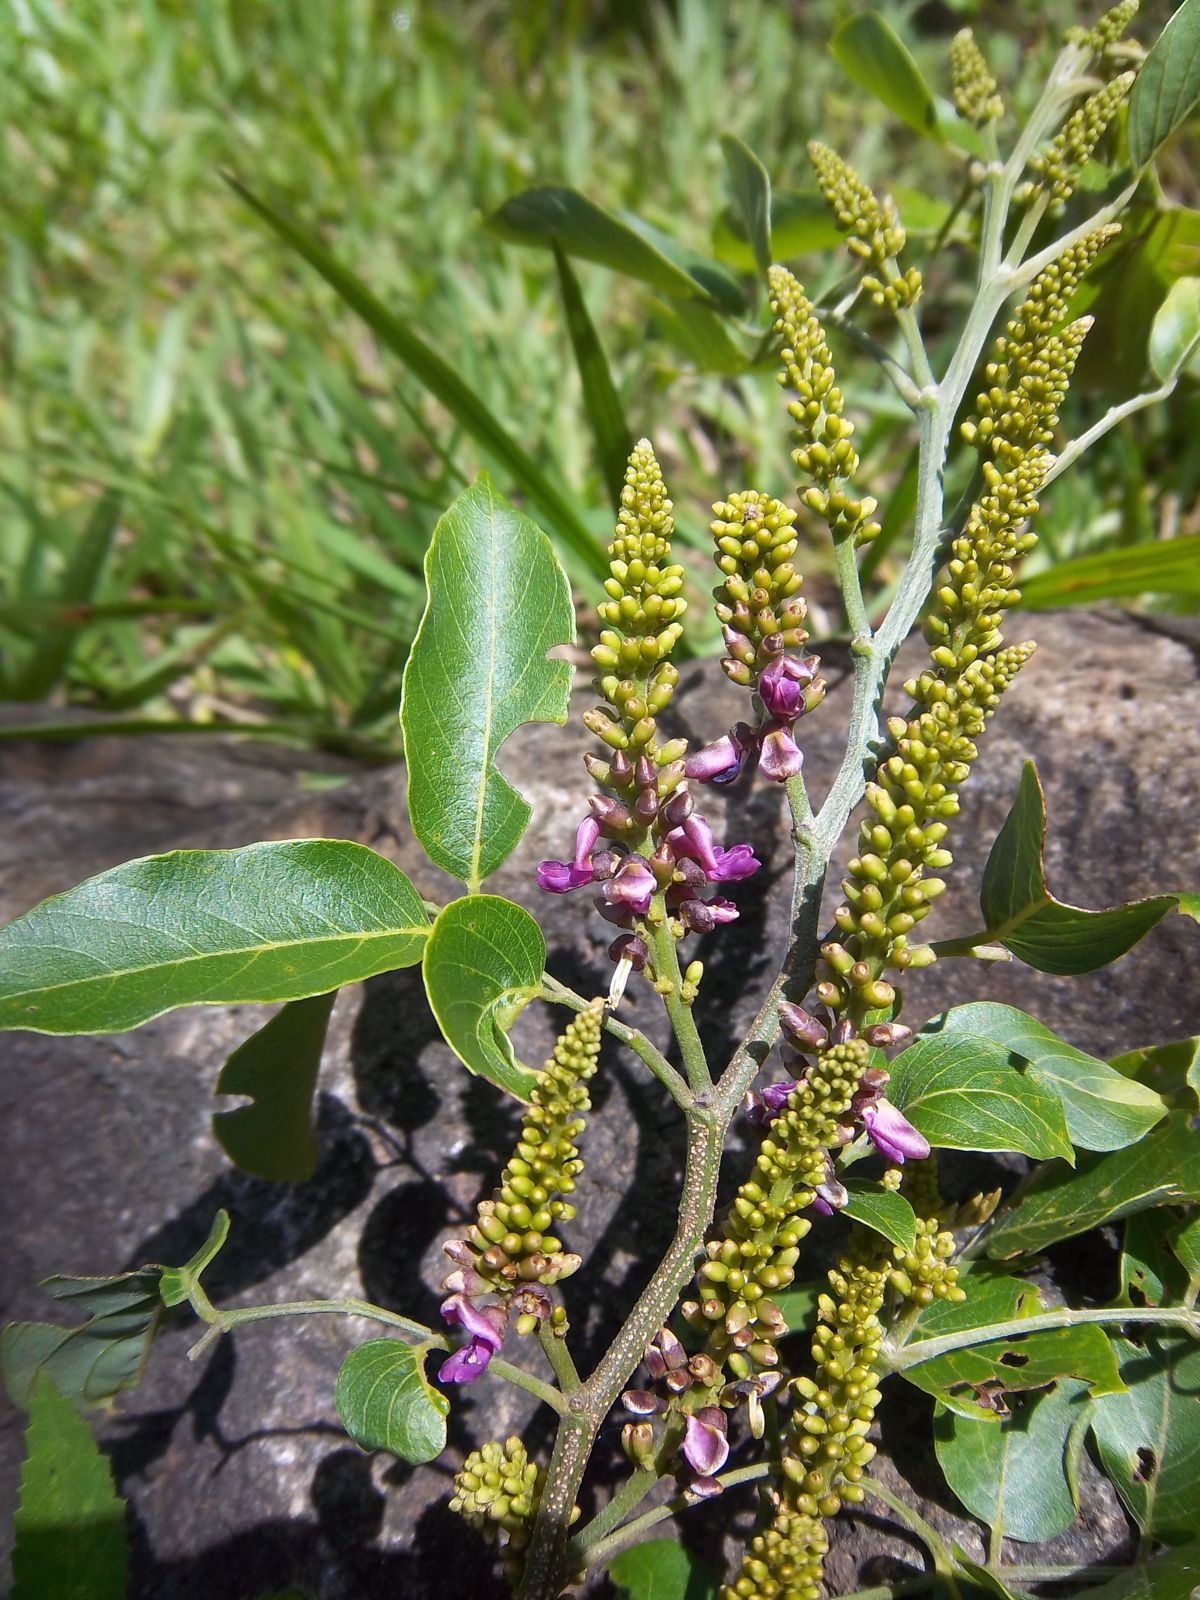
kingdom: Plantae
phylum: Tracheophyta
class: Magnoliopsida
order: Fabales
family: Fabaceae
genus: Lonchocarpus
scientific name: Lonchocarpus minimiflorus
